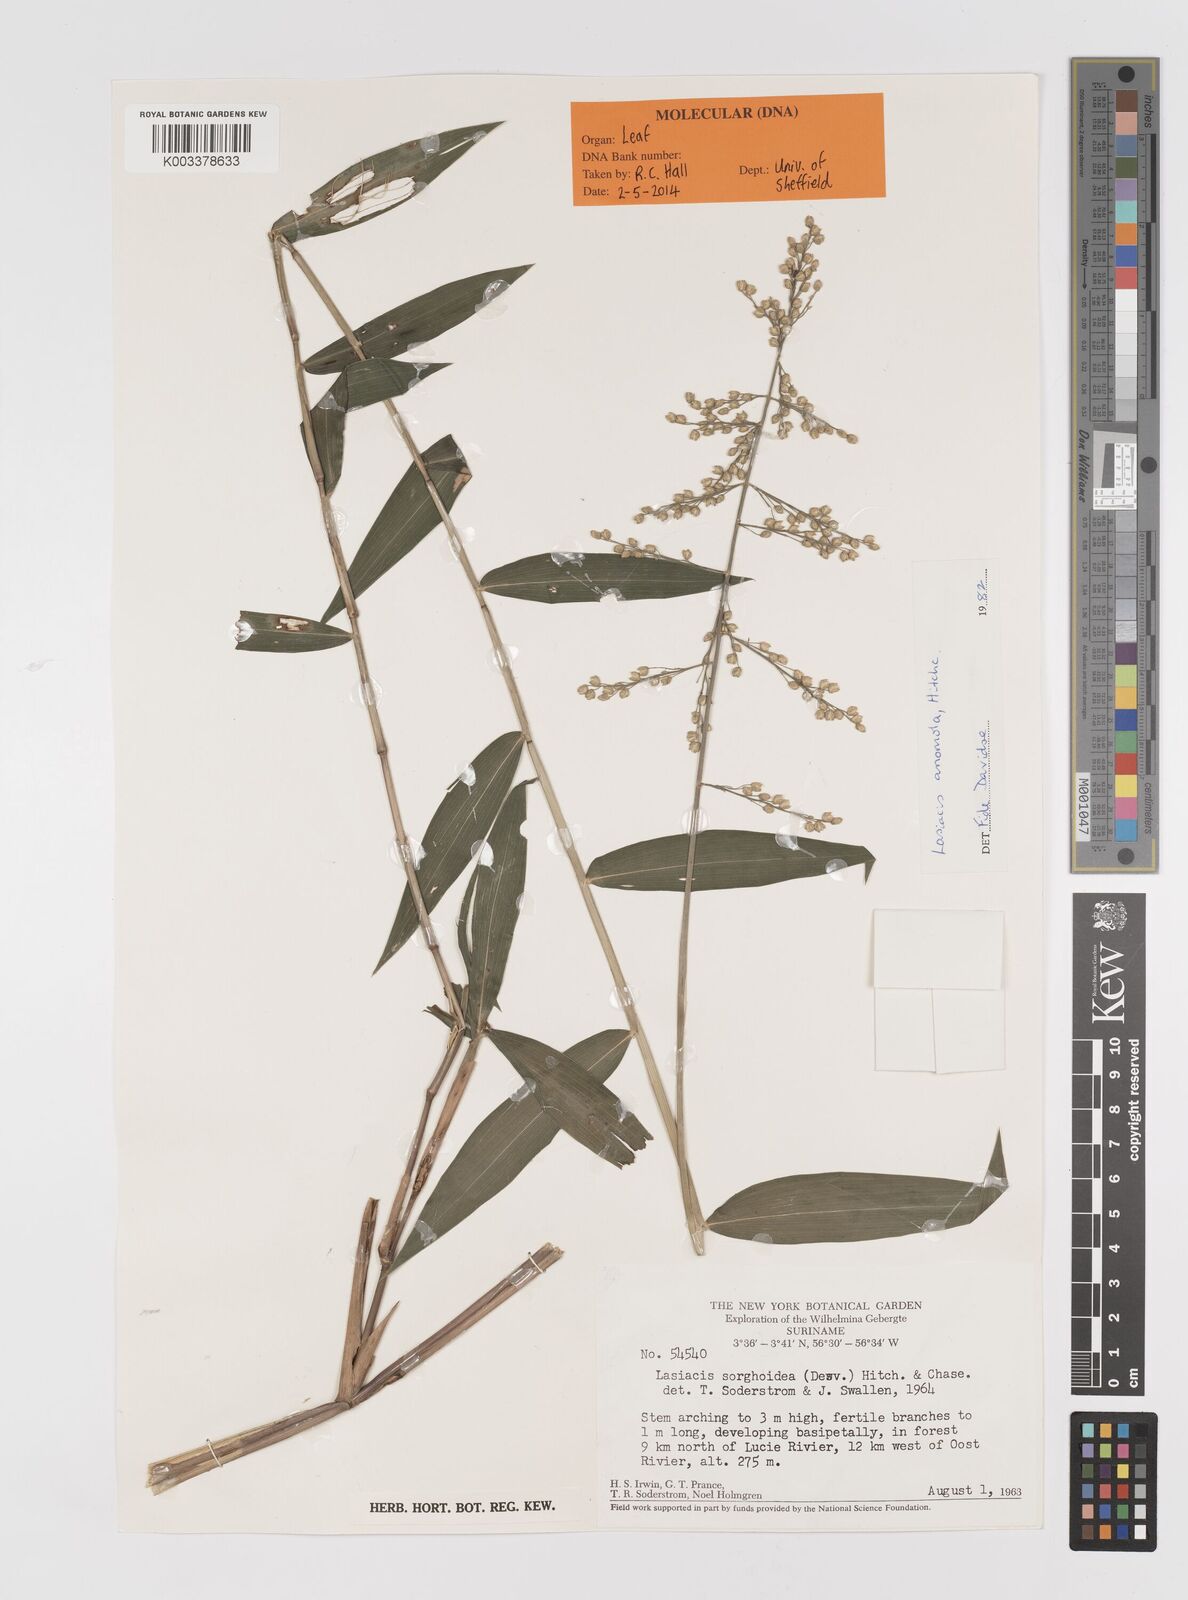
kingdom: Plantae
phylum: Tracheophyta
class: Liliopsida
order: Poales
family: Poaceae
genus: Lasiacis
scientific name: Lasiacis anomala
